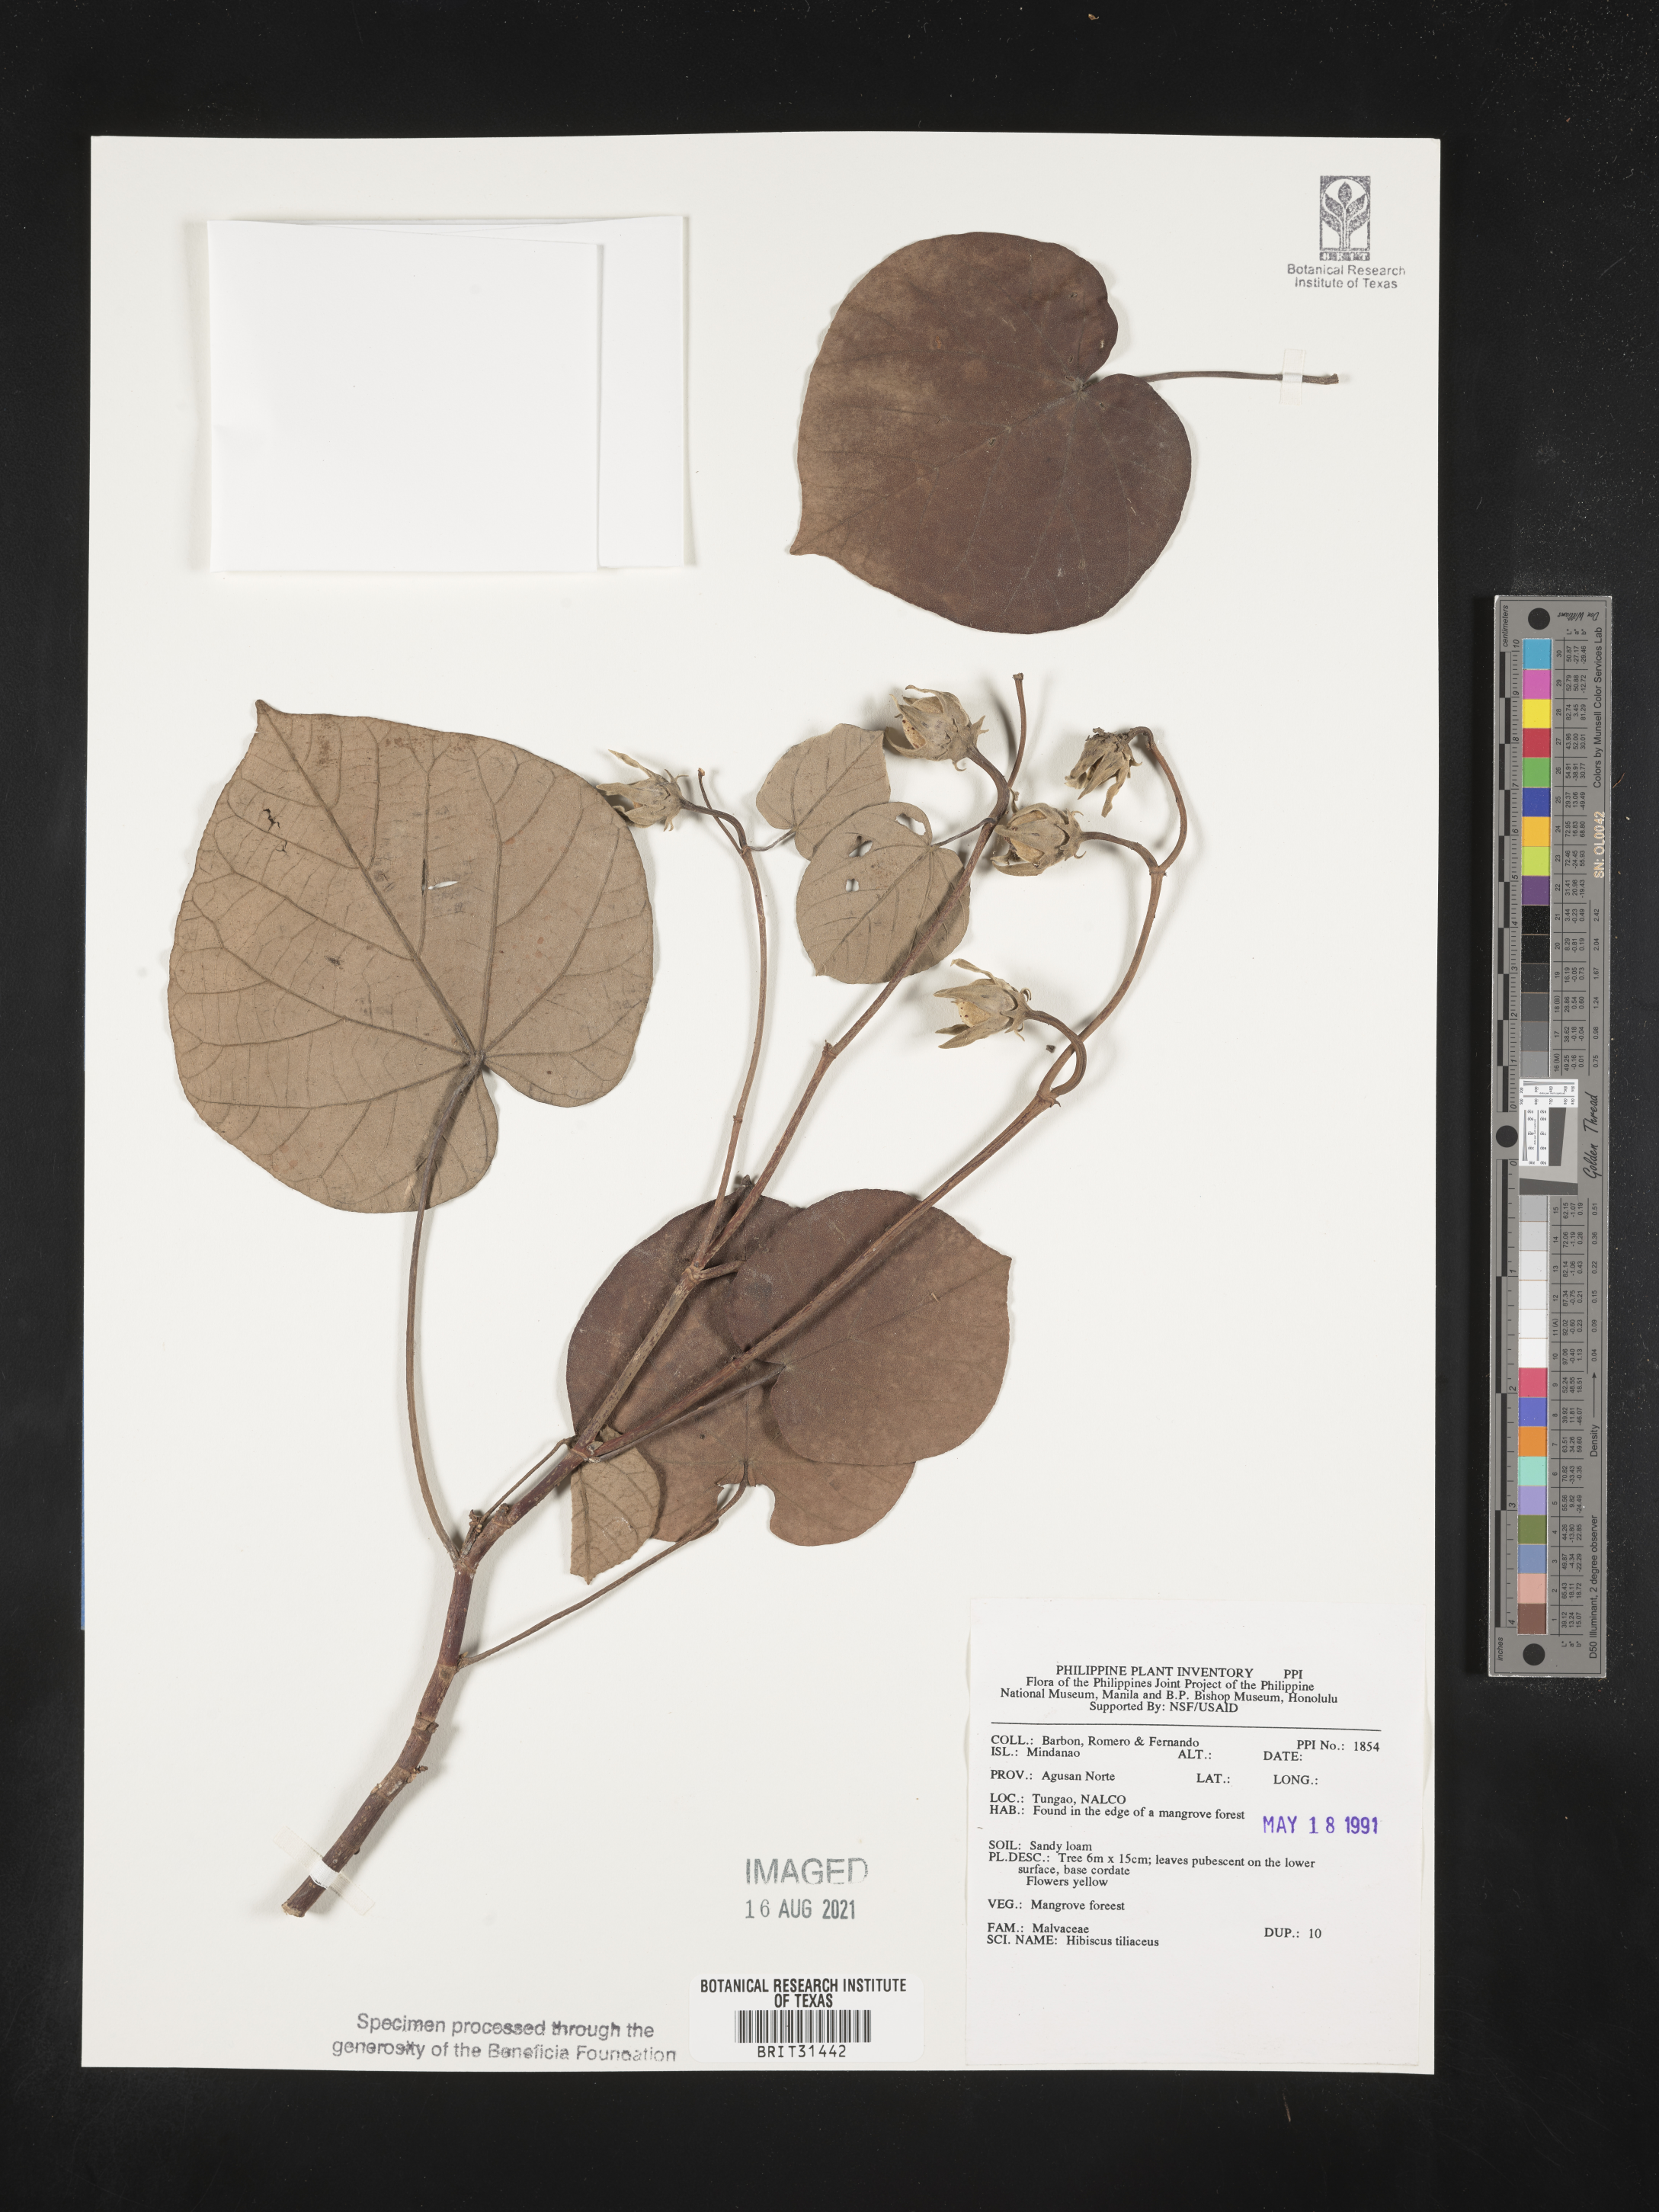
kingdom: Plantae
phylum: Tracheophyta
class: Magnoliopsida
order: Malvales
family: Malvaceae
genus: Talipariti
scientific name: Talipariti tiliaceum
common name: Sea hibiscus
